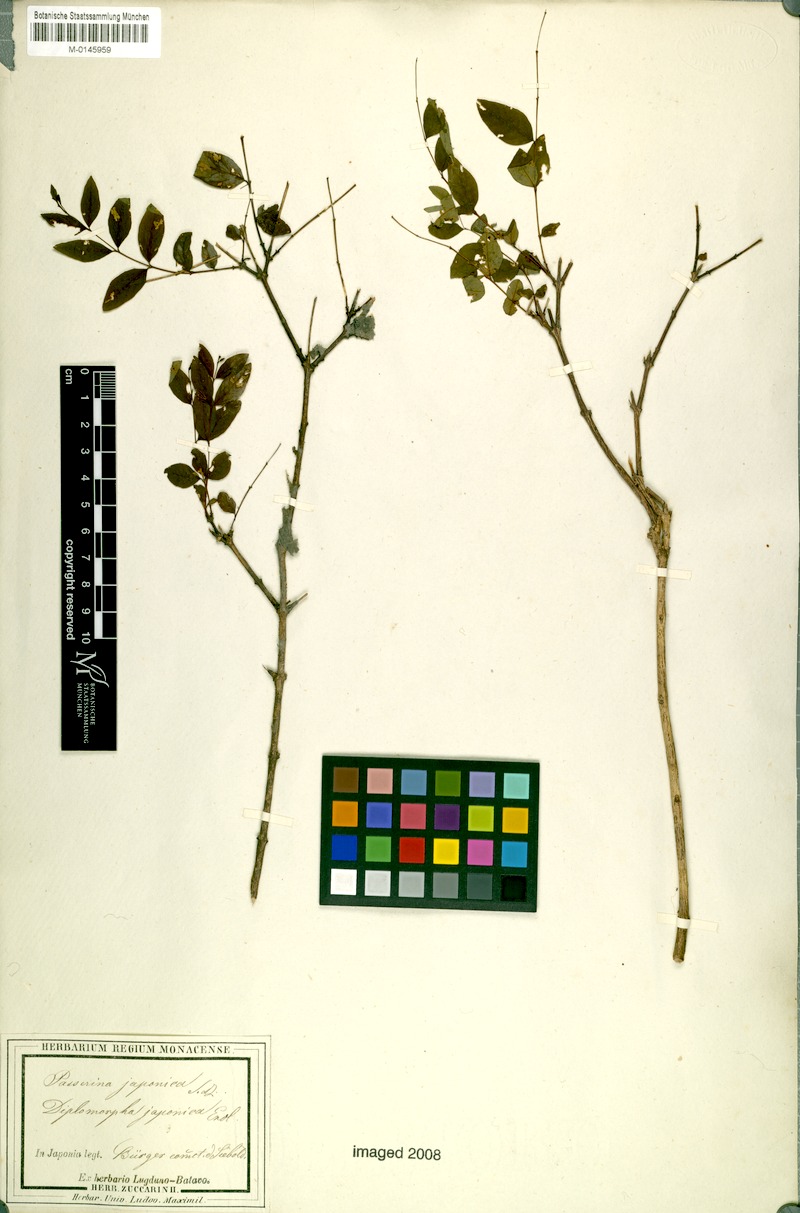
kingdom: Plantae
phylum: Tracheophyta
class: Magnoliopsida
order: Malvales
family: Thymelaeaceae
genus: Wikstroemia
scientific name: Wikstroemia trichotoma
